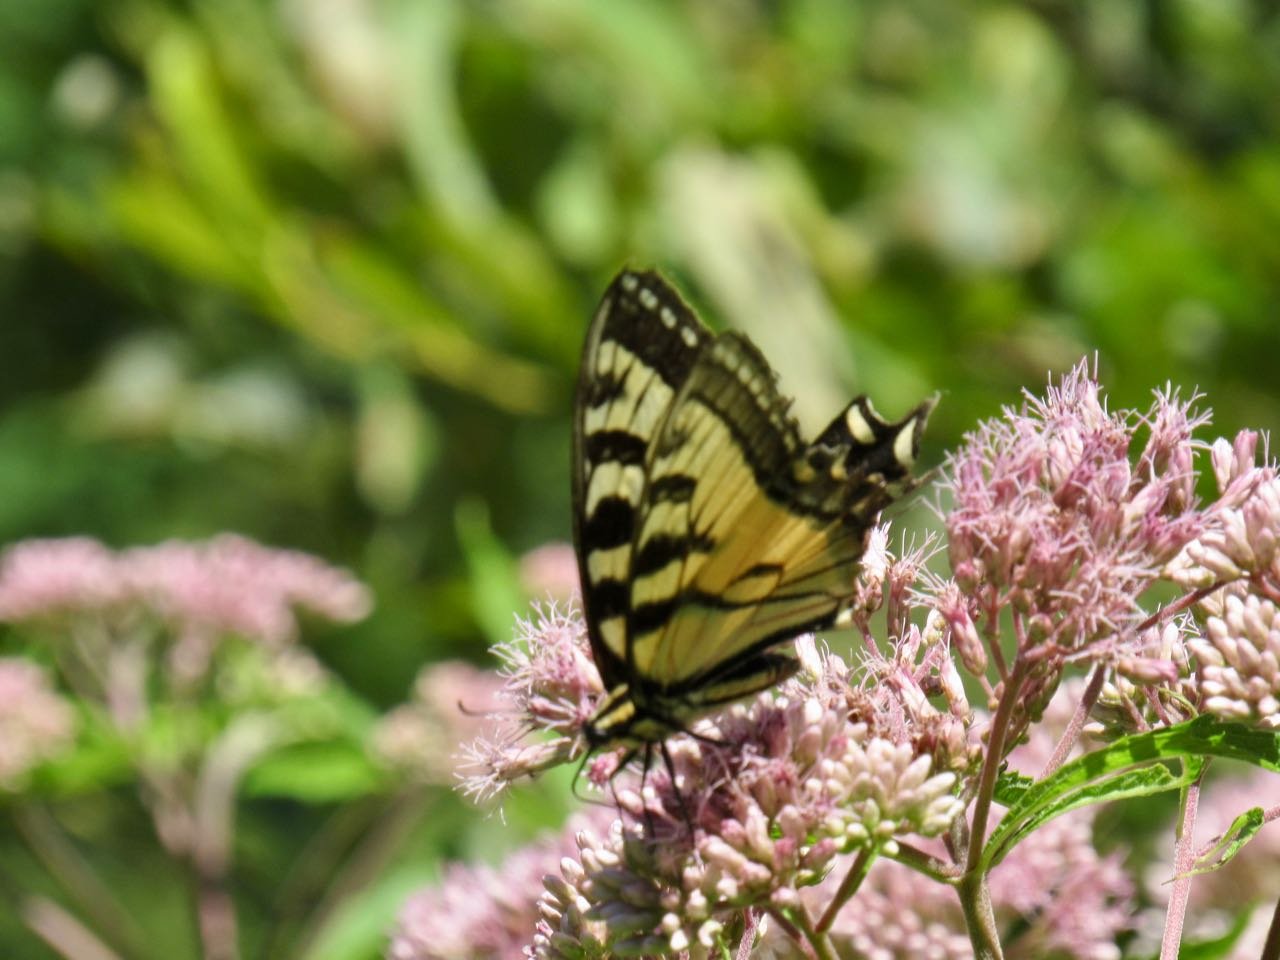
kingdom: Animalia
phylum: Arthropoda
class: Insecta
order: Lepidoptera
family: Papilionidae
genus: Pterourus
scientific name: Pterourus
